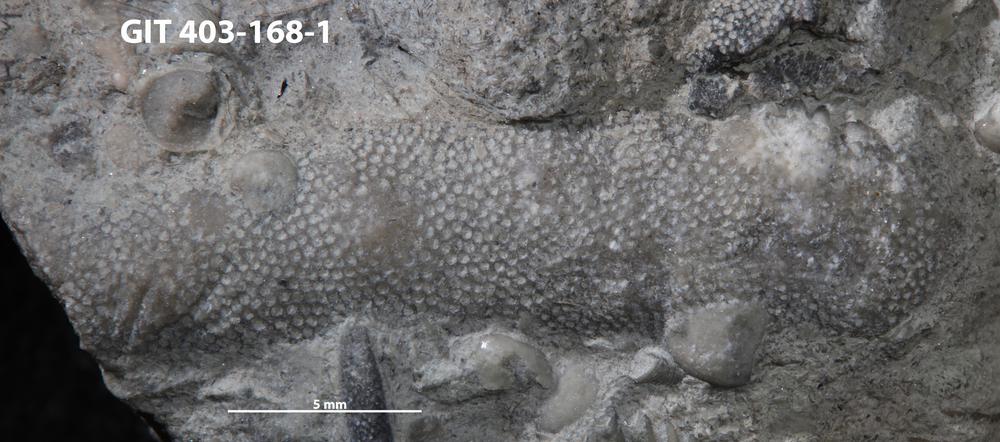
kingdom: Animalia
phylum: Bryozoa
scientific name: Bryozoa
